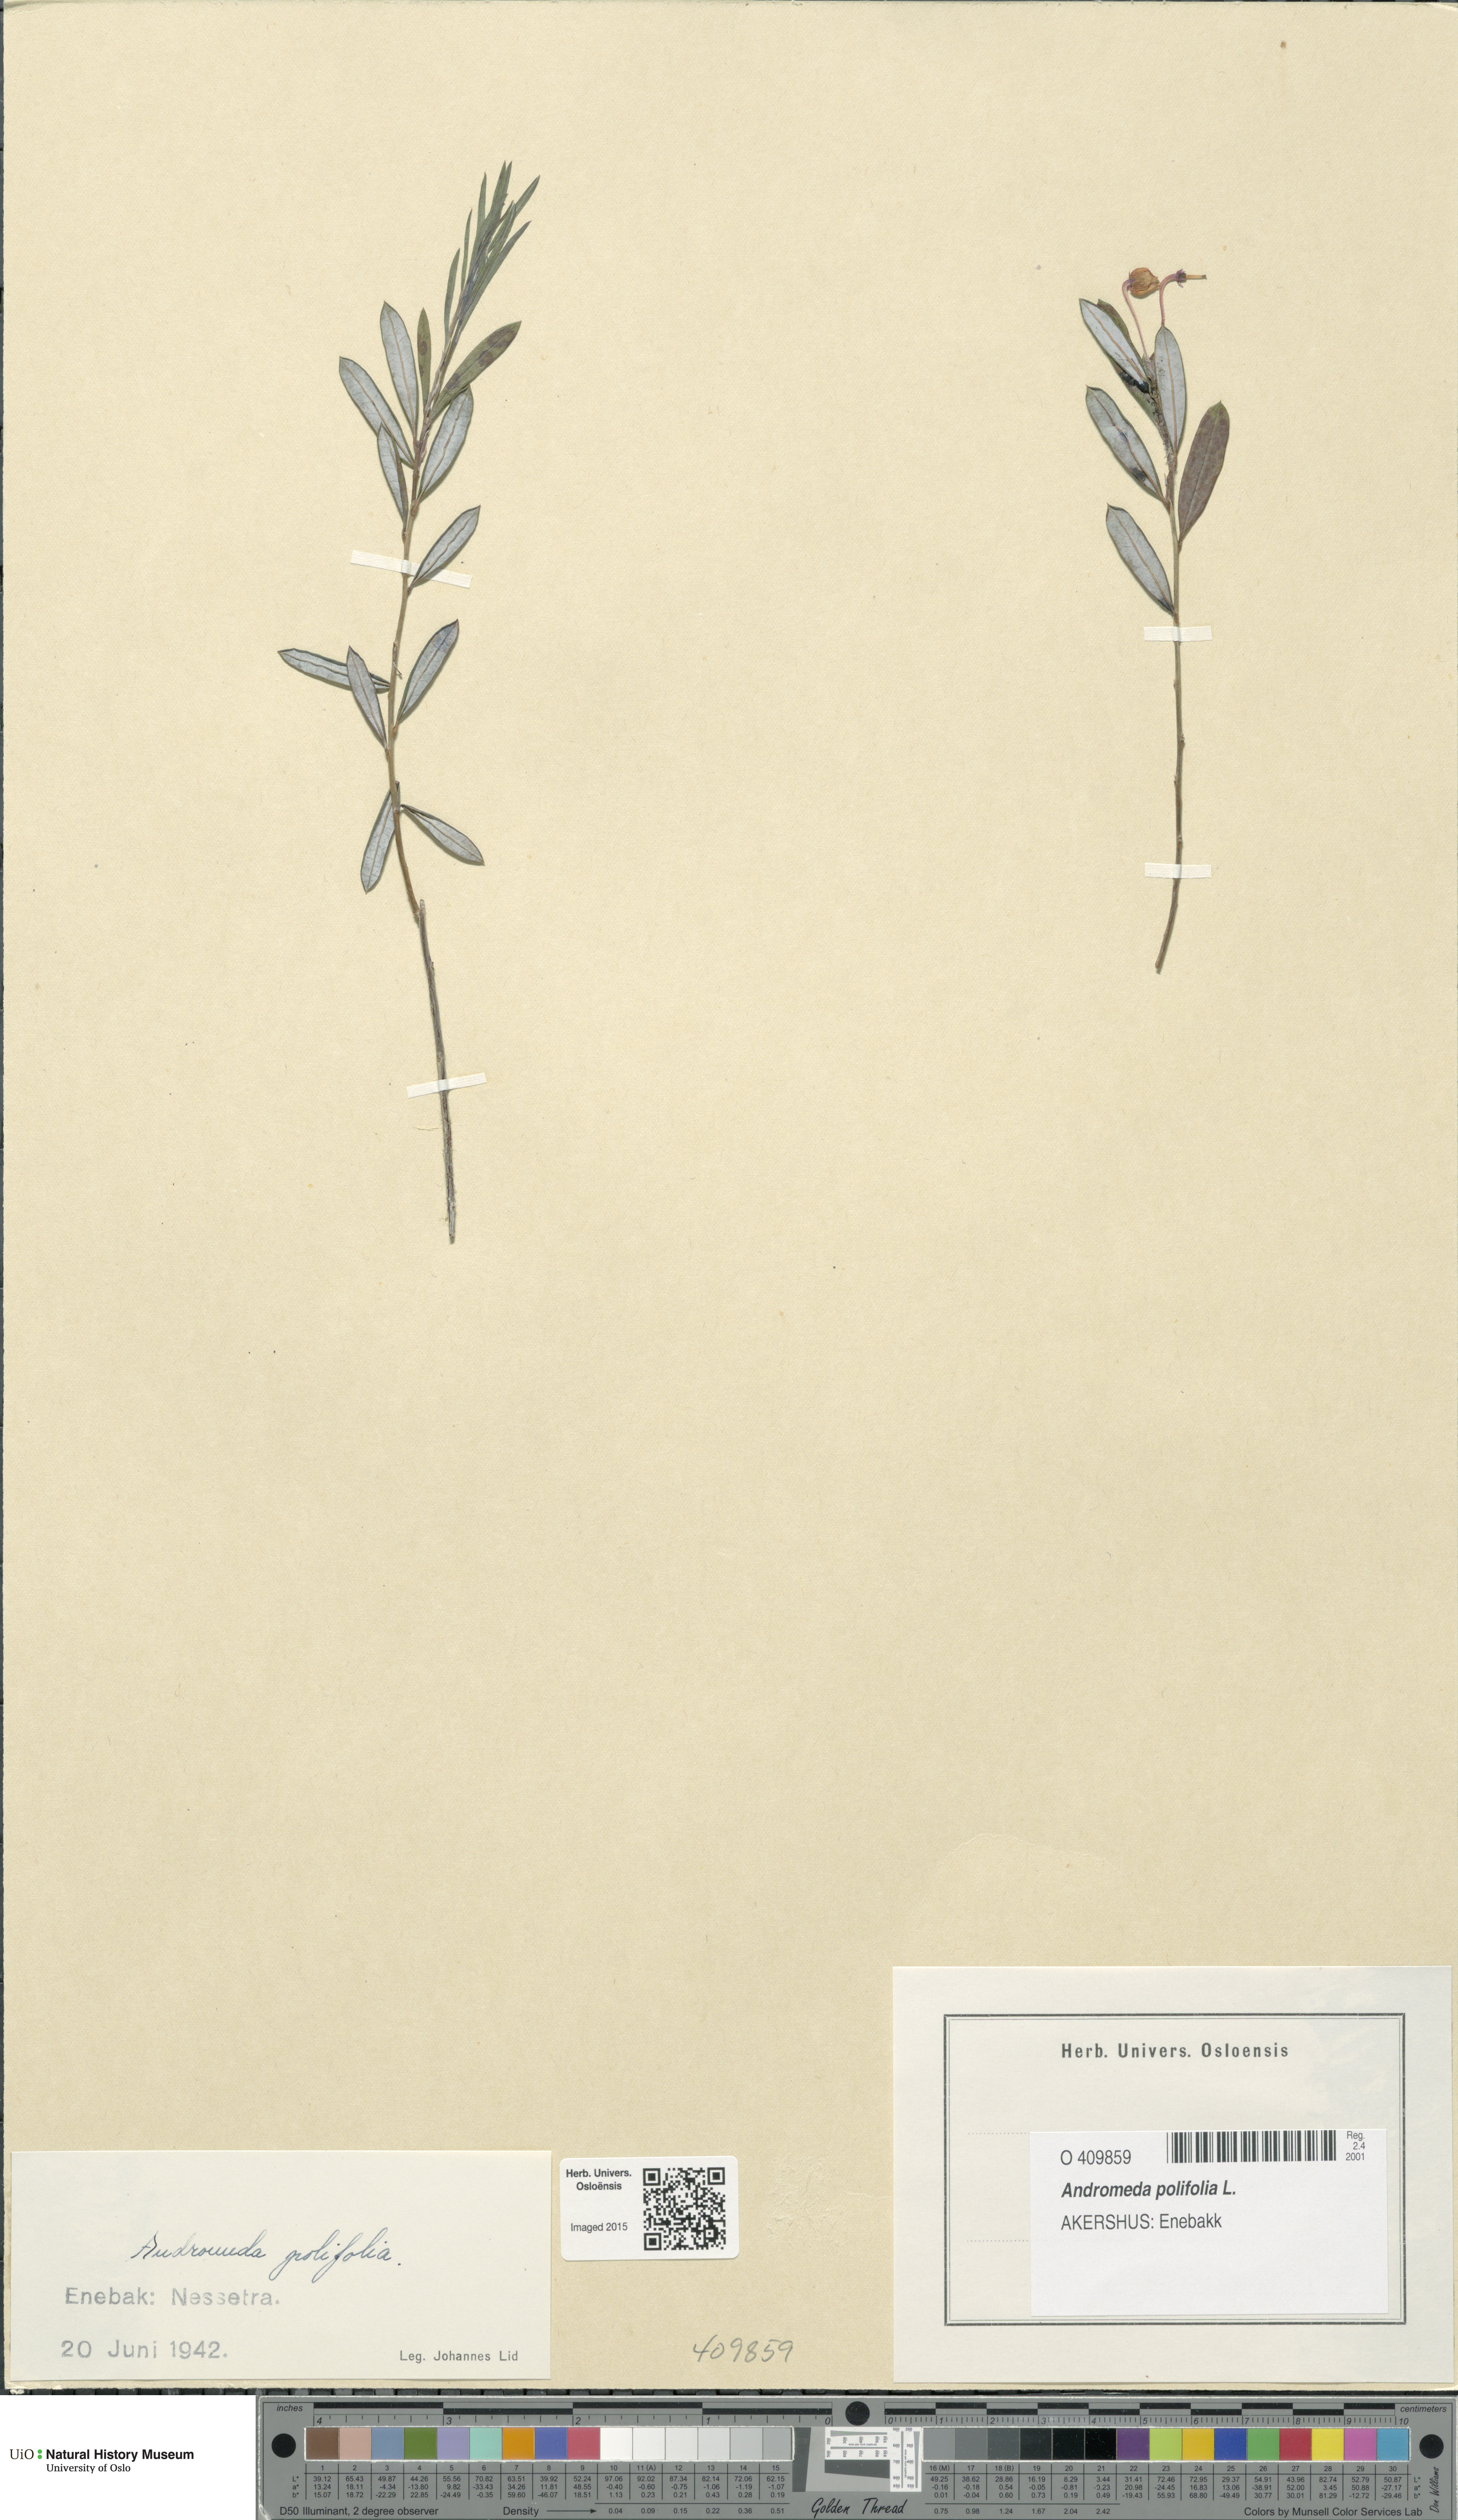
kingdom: Plantae
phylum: Tracheophyta
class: Magnoliopsida
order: Ericales
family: Ericaceae
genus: Andromeda
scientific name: Andromeda polifolia
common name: Bog-rosemary
